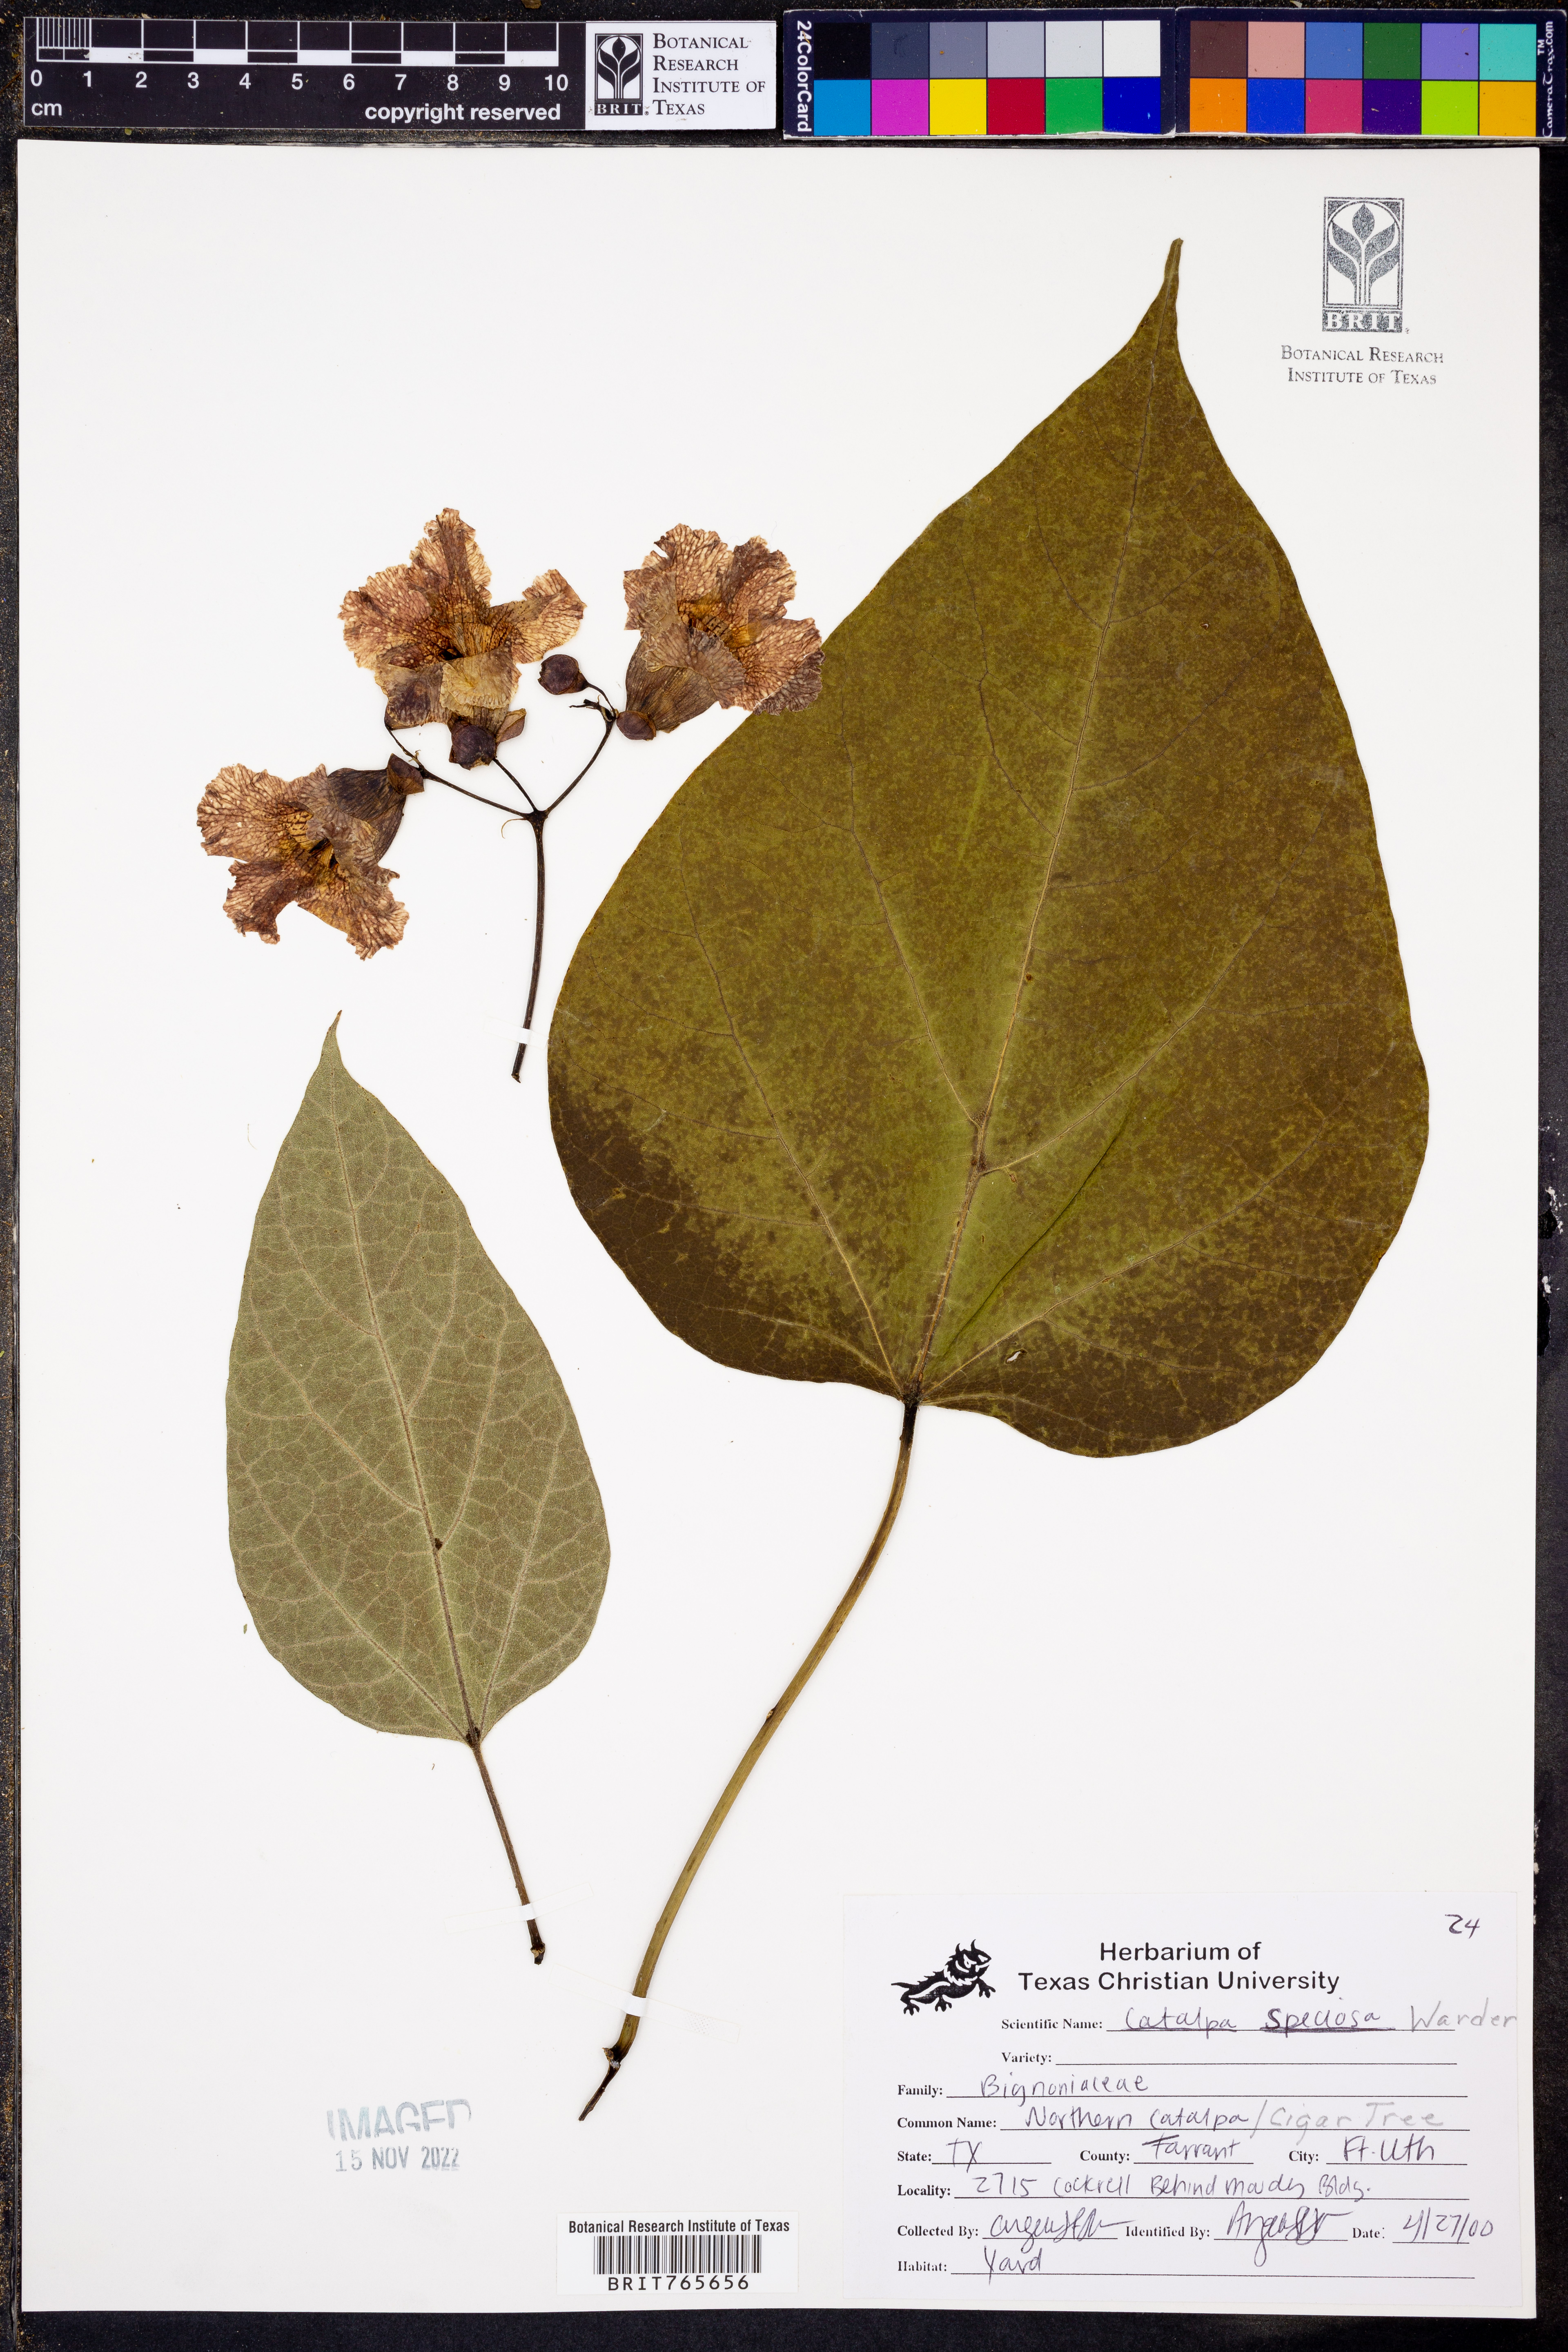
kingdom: Plantae
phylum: Tracheophyta
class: Magnoliopsida
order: Lamiales
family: Bignoniaceae
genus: Catalpa
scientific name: Catalpa speciosa
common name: Northern catalpa
